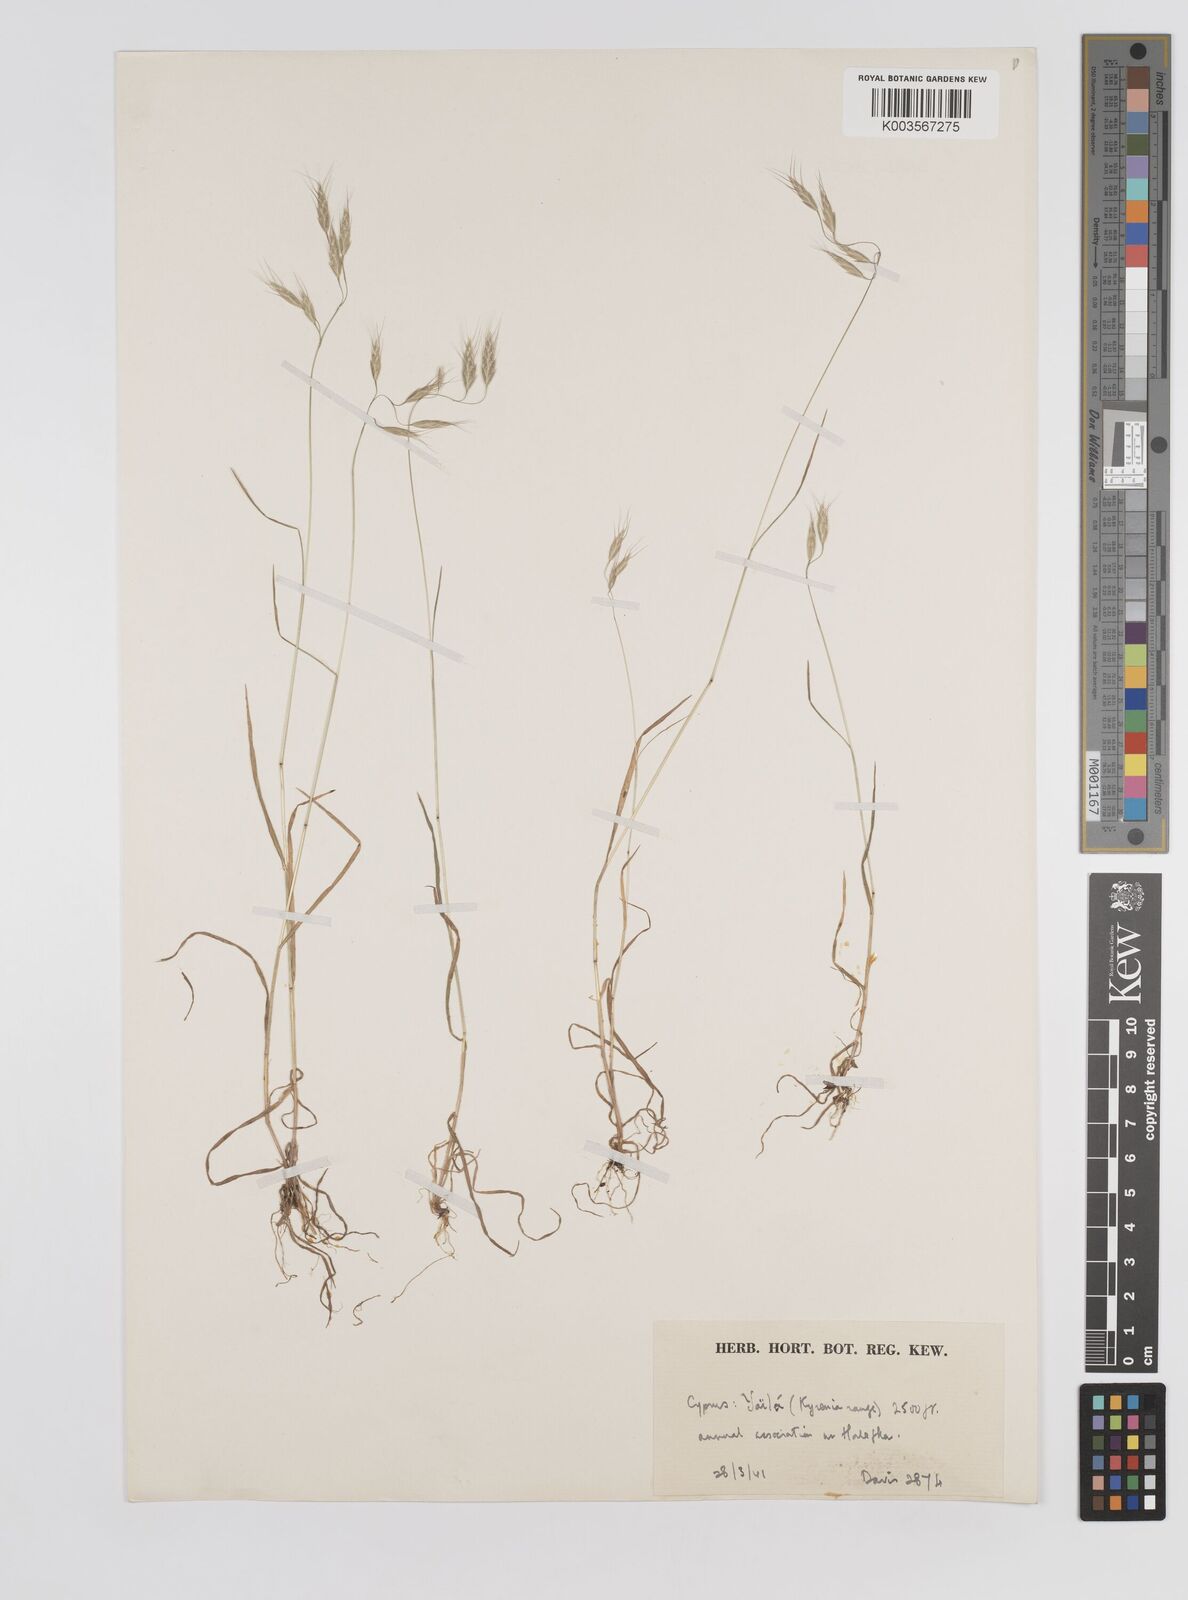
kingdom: Plantae
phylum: Tracheophyta
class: Liliopsida
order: Poales
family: Poaceae
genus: Bromus
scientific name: Bromus intermedius
